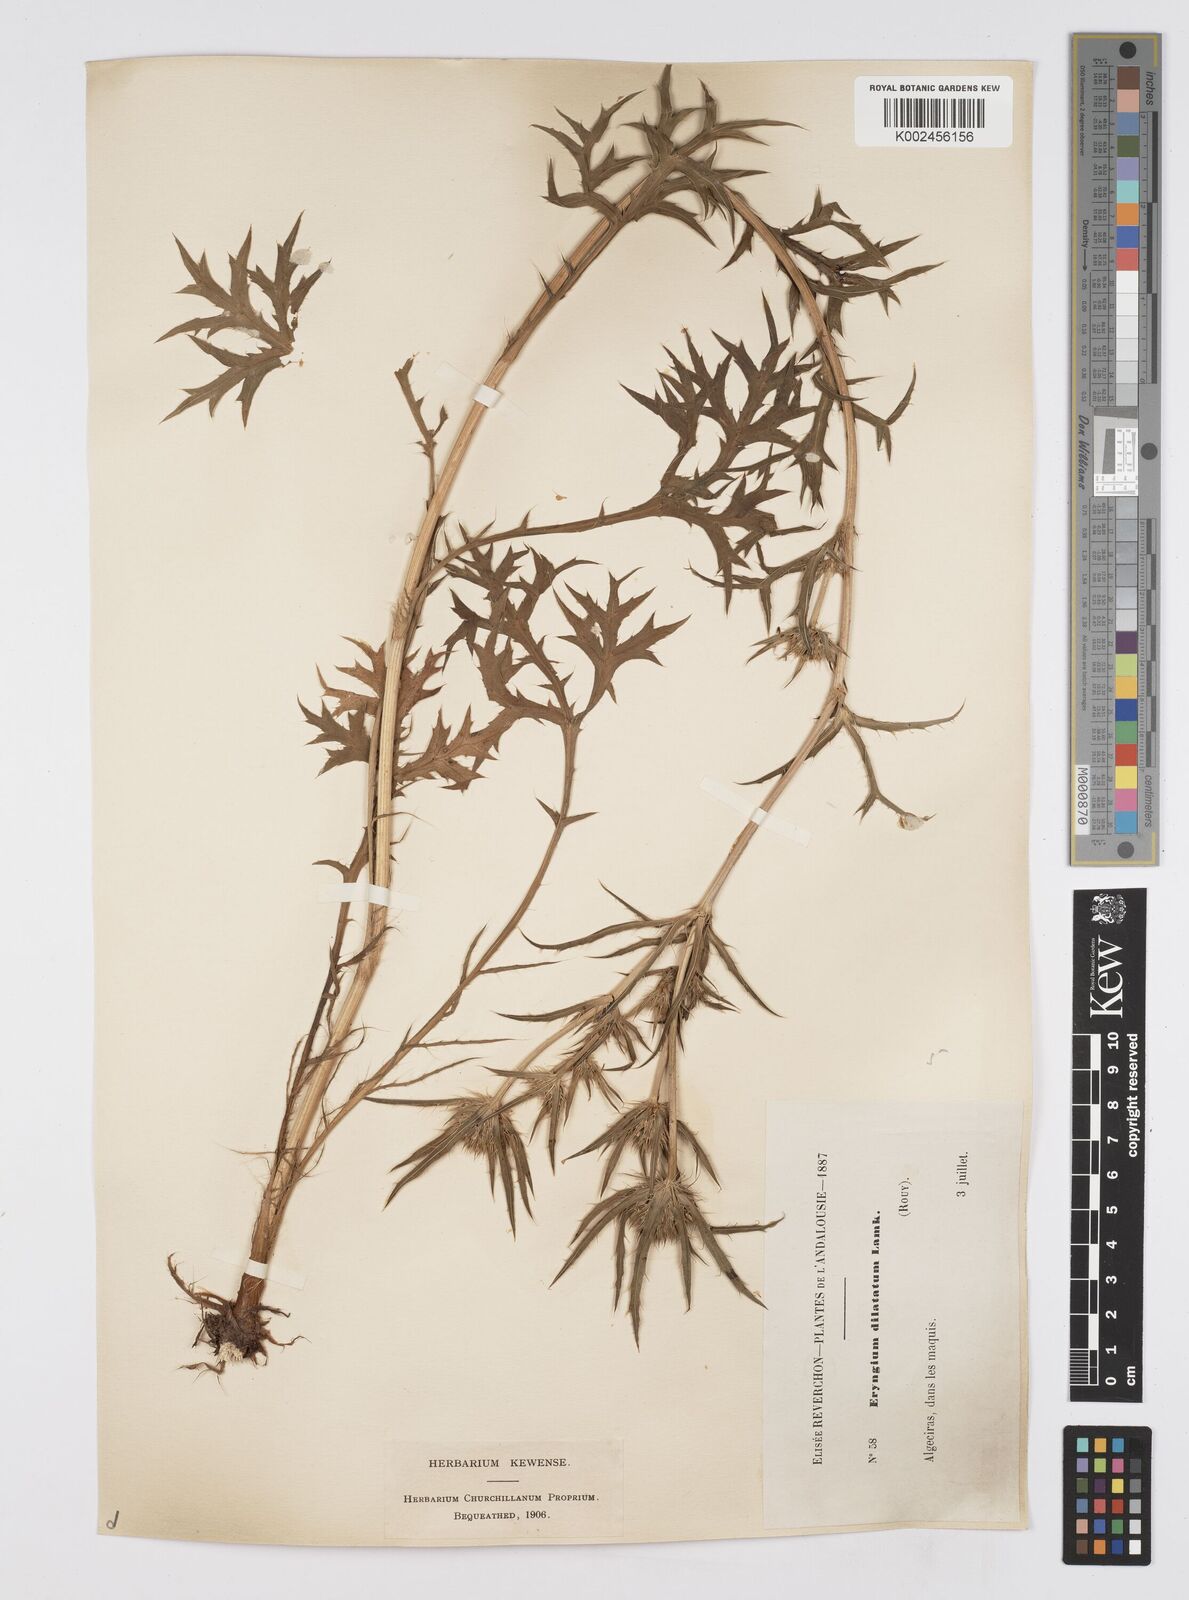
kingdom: Plantae
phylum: Tracheophyta
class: Magnoliopsida
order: Apiales
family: Apiaceae
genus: Eryngium
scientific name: Eryngium dilatatum
